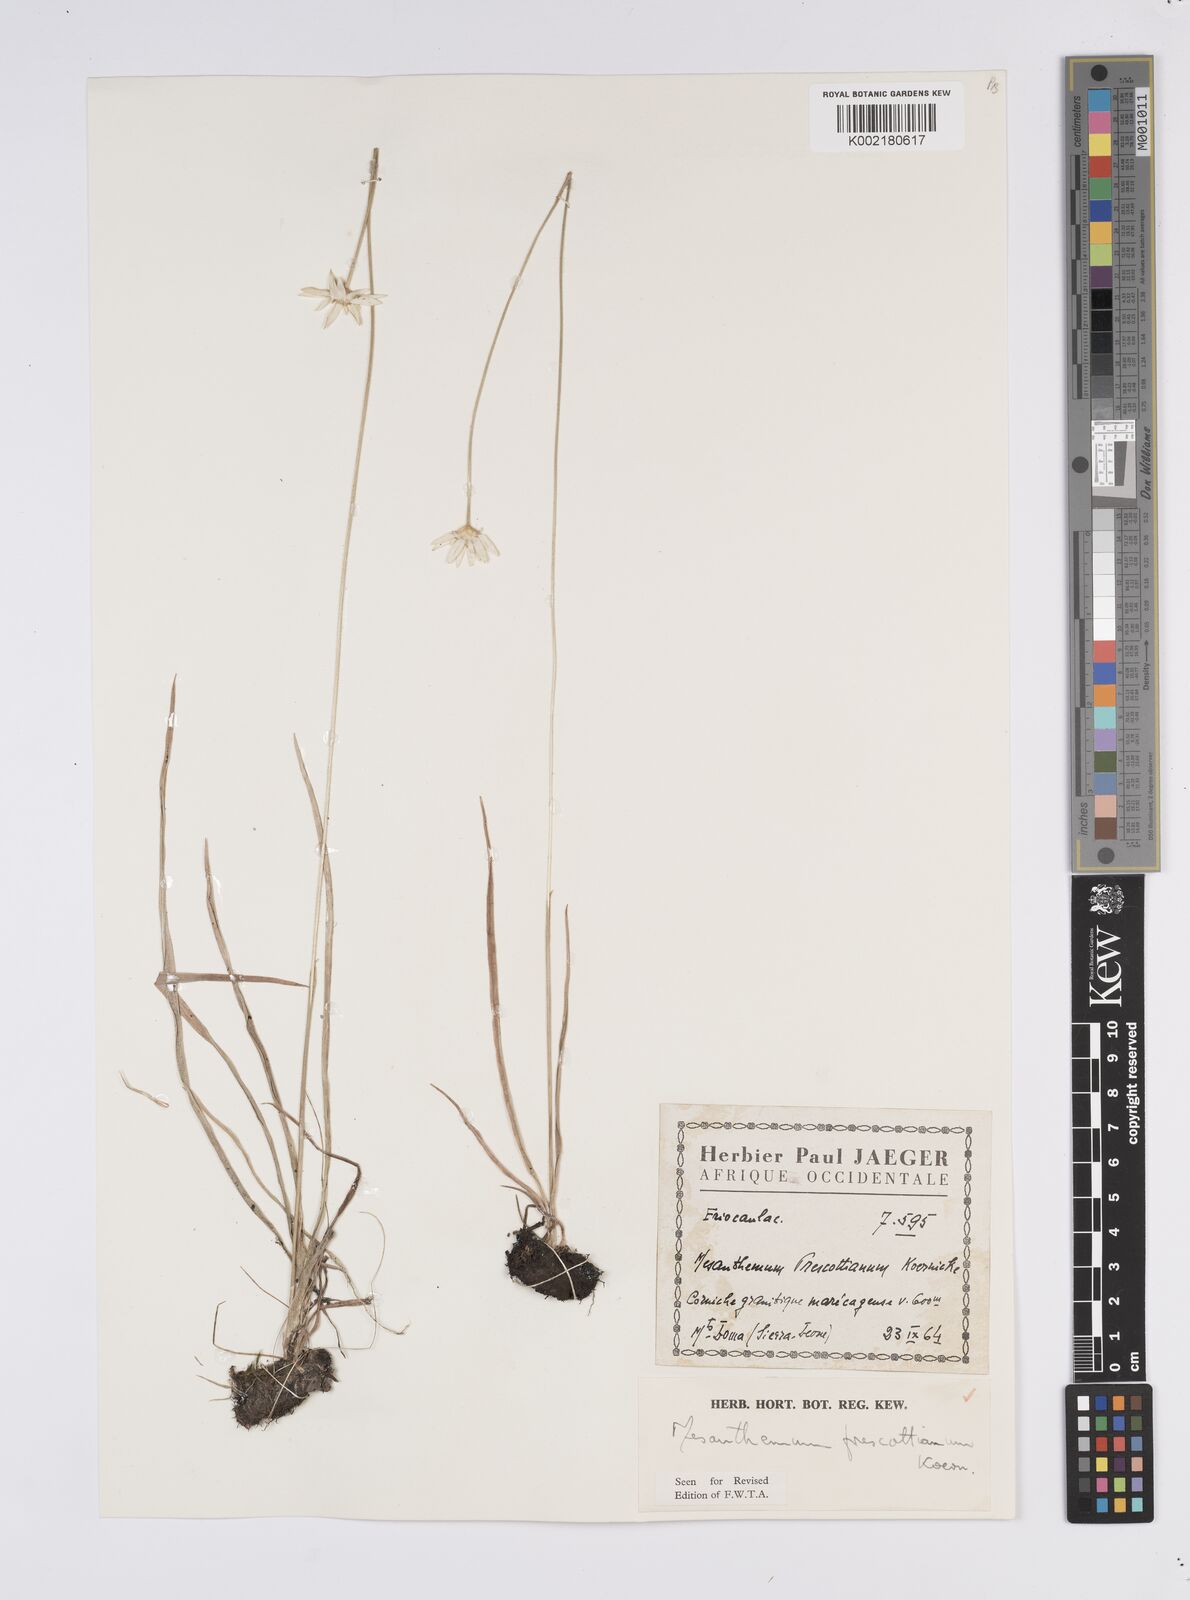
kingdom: Plantae
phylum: Tracheophyta
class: Liliopsida
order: Poales
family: Eriocaulaceae
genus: Mesanthemum
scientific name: Mesanthemum prescottianum
